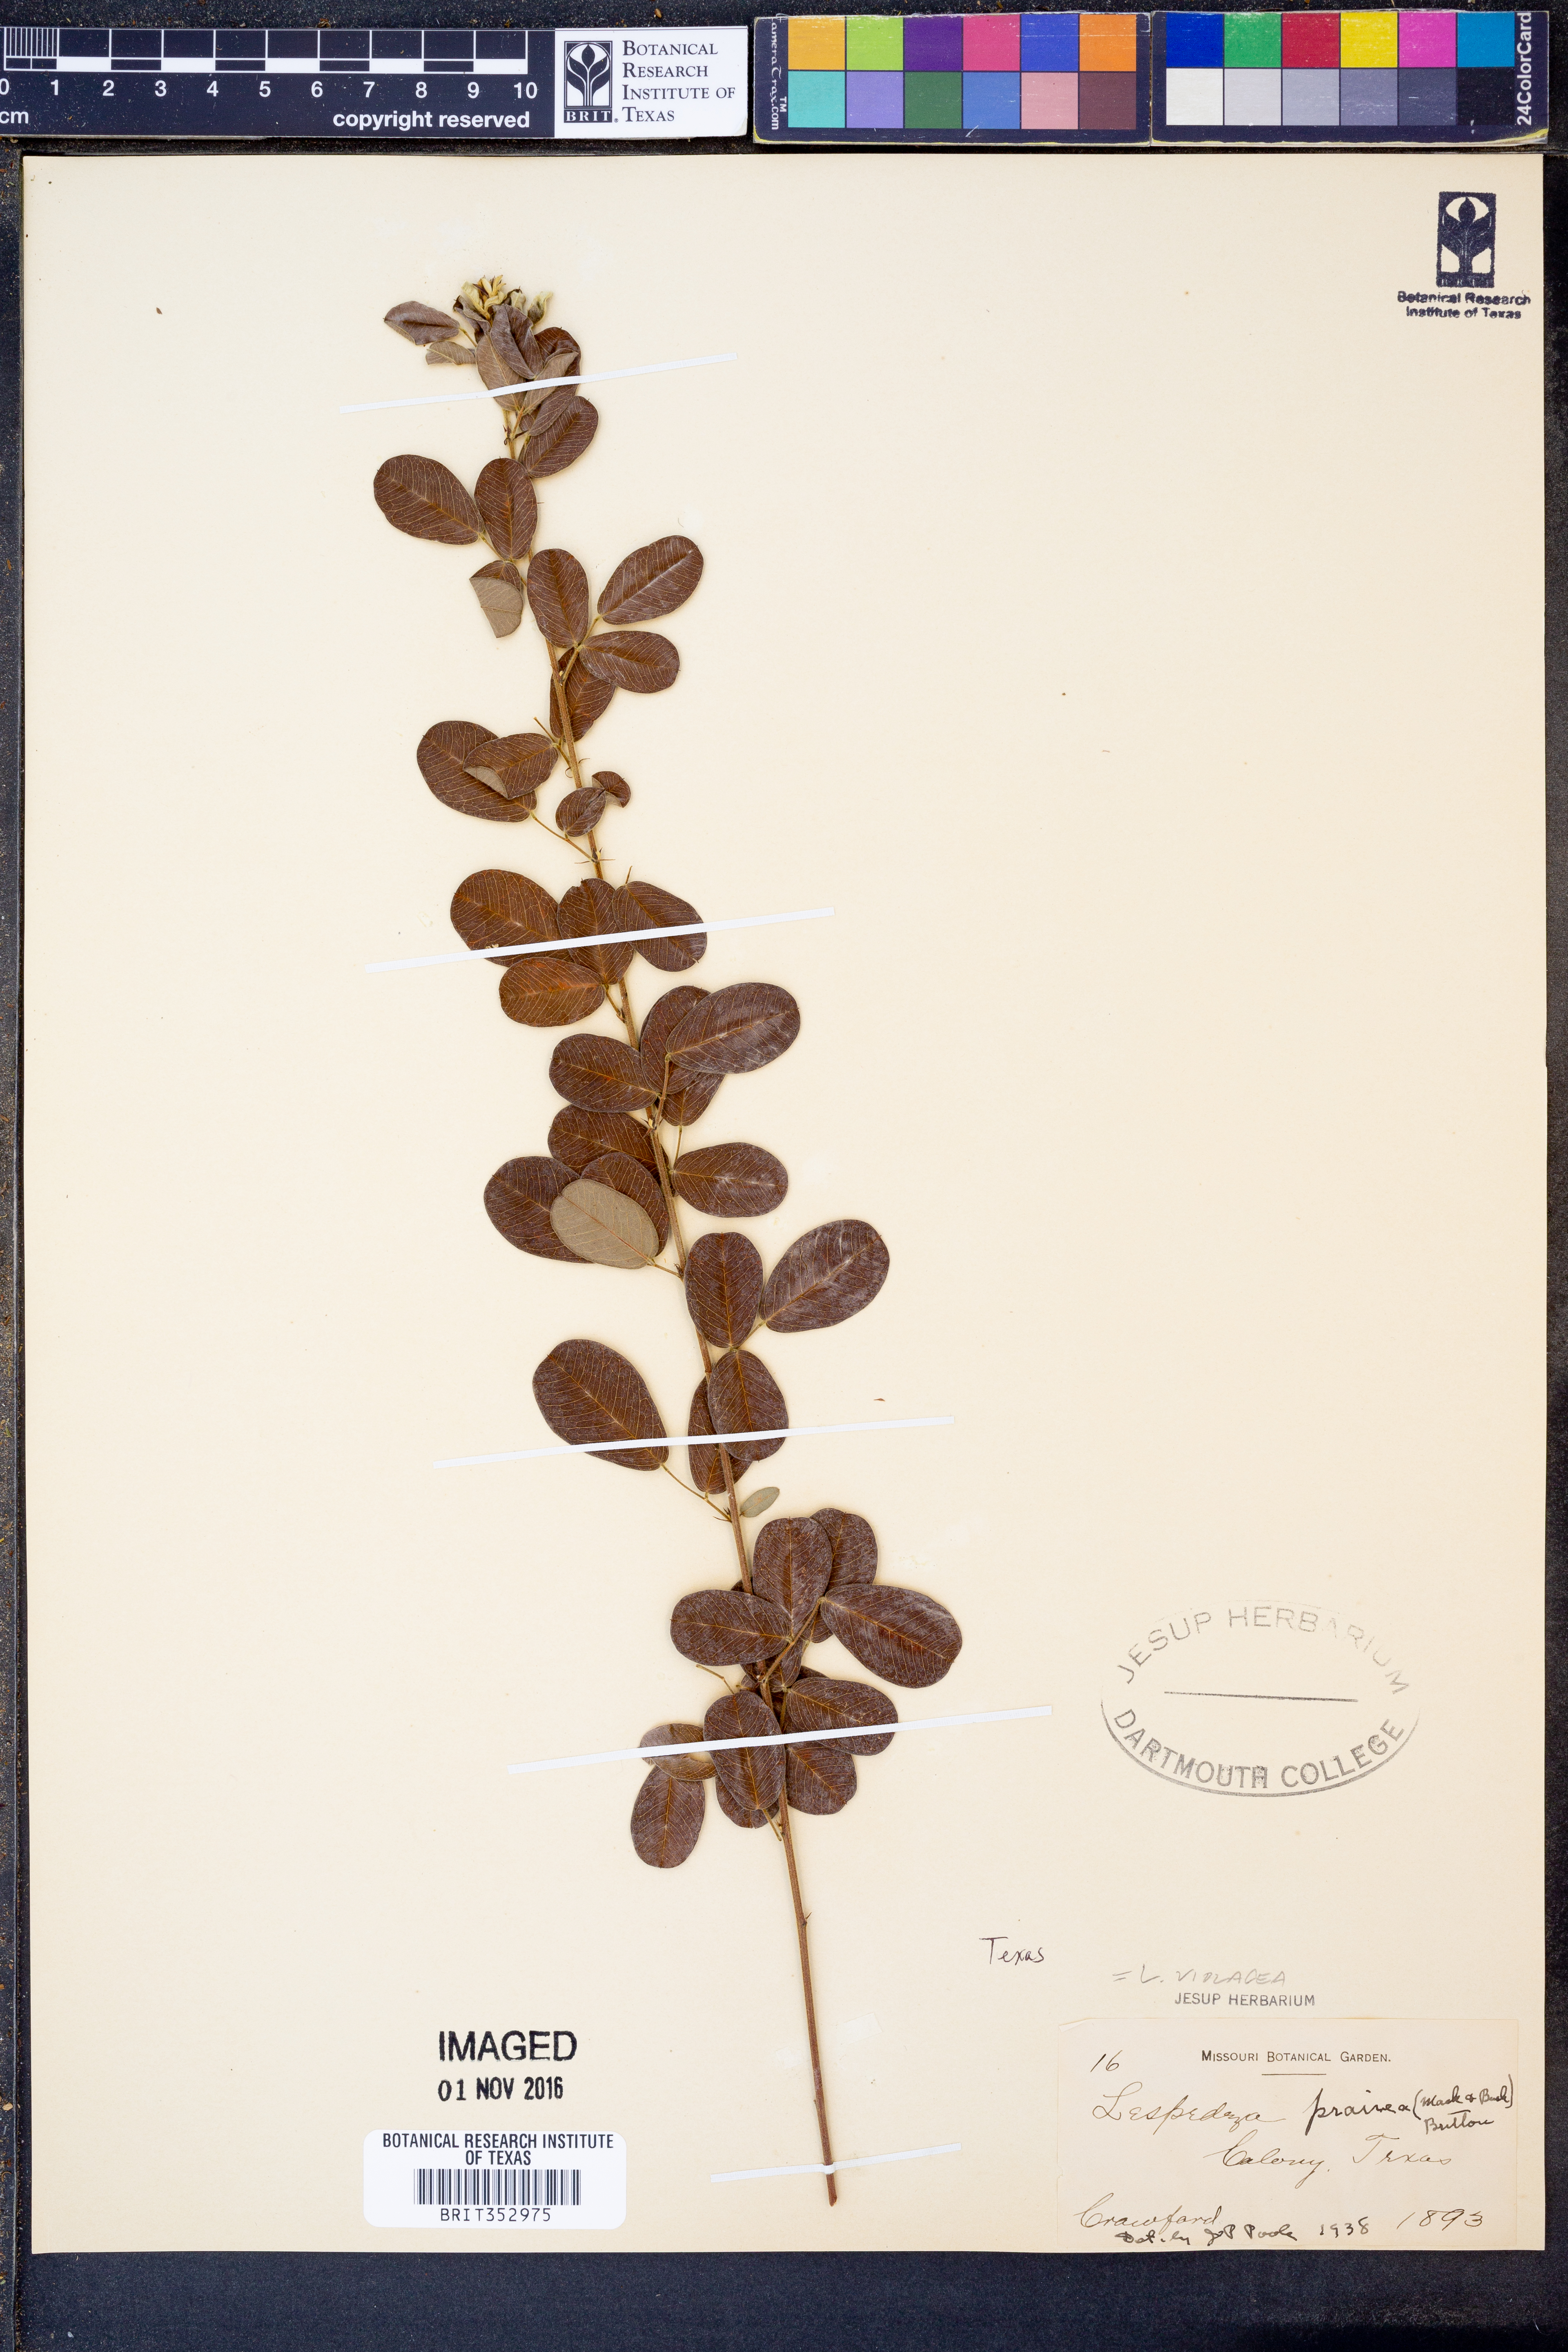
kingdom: Plantae
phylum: Tracheophyta
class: Magnoliopsida
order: Fabales
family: Fabaceae
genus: Lespedeza
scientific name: Lespedeza violacea
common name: Wand bush-clover
